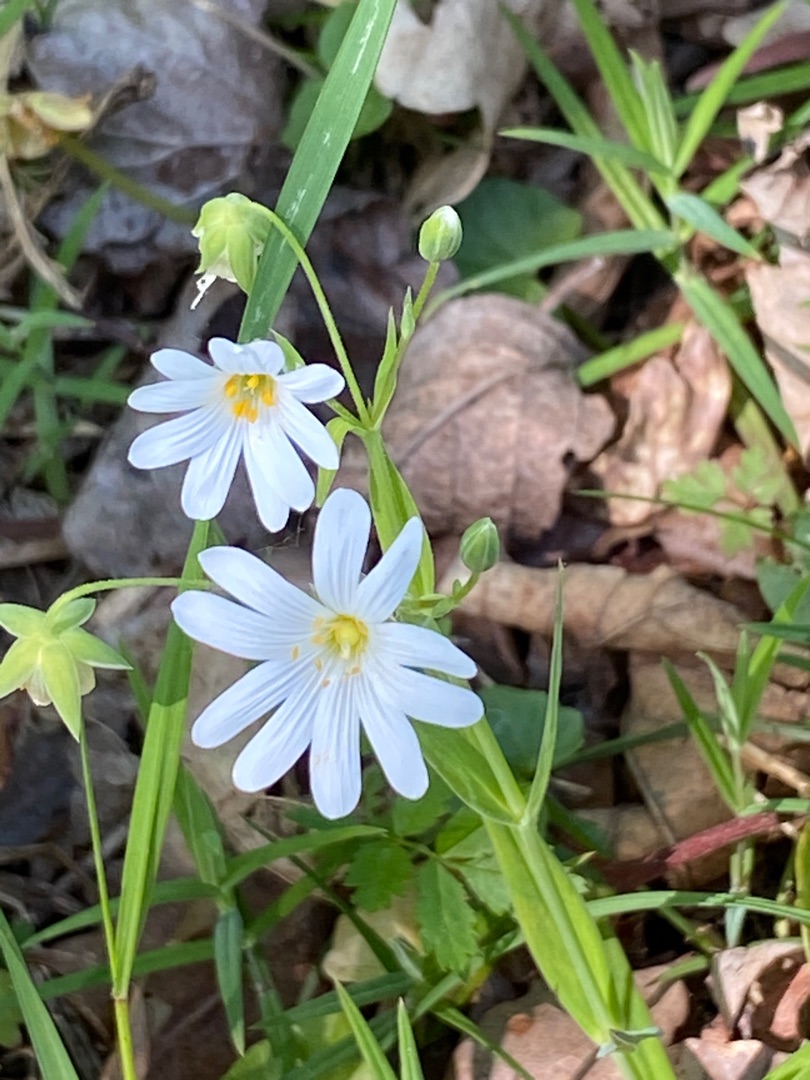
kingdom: Plantae
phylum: Tracheophyta
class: Magnoliopsida
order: Caryophyllales
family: Caryophyllaceae
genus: Rabelera
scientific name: Rabelera holostea
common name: Stor fladstjerne
